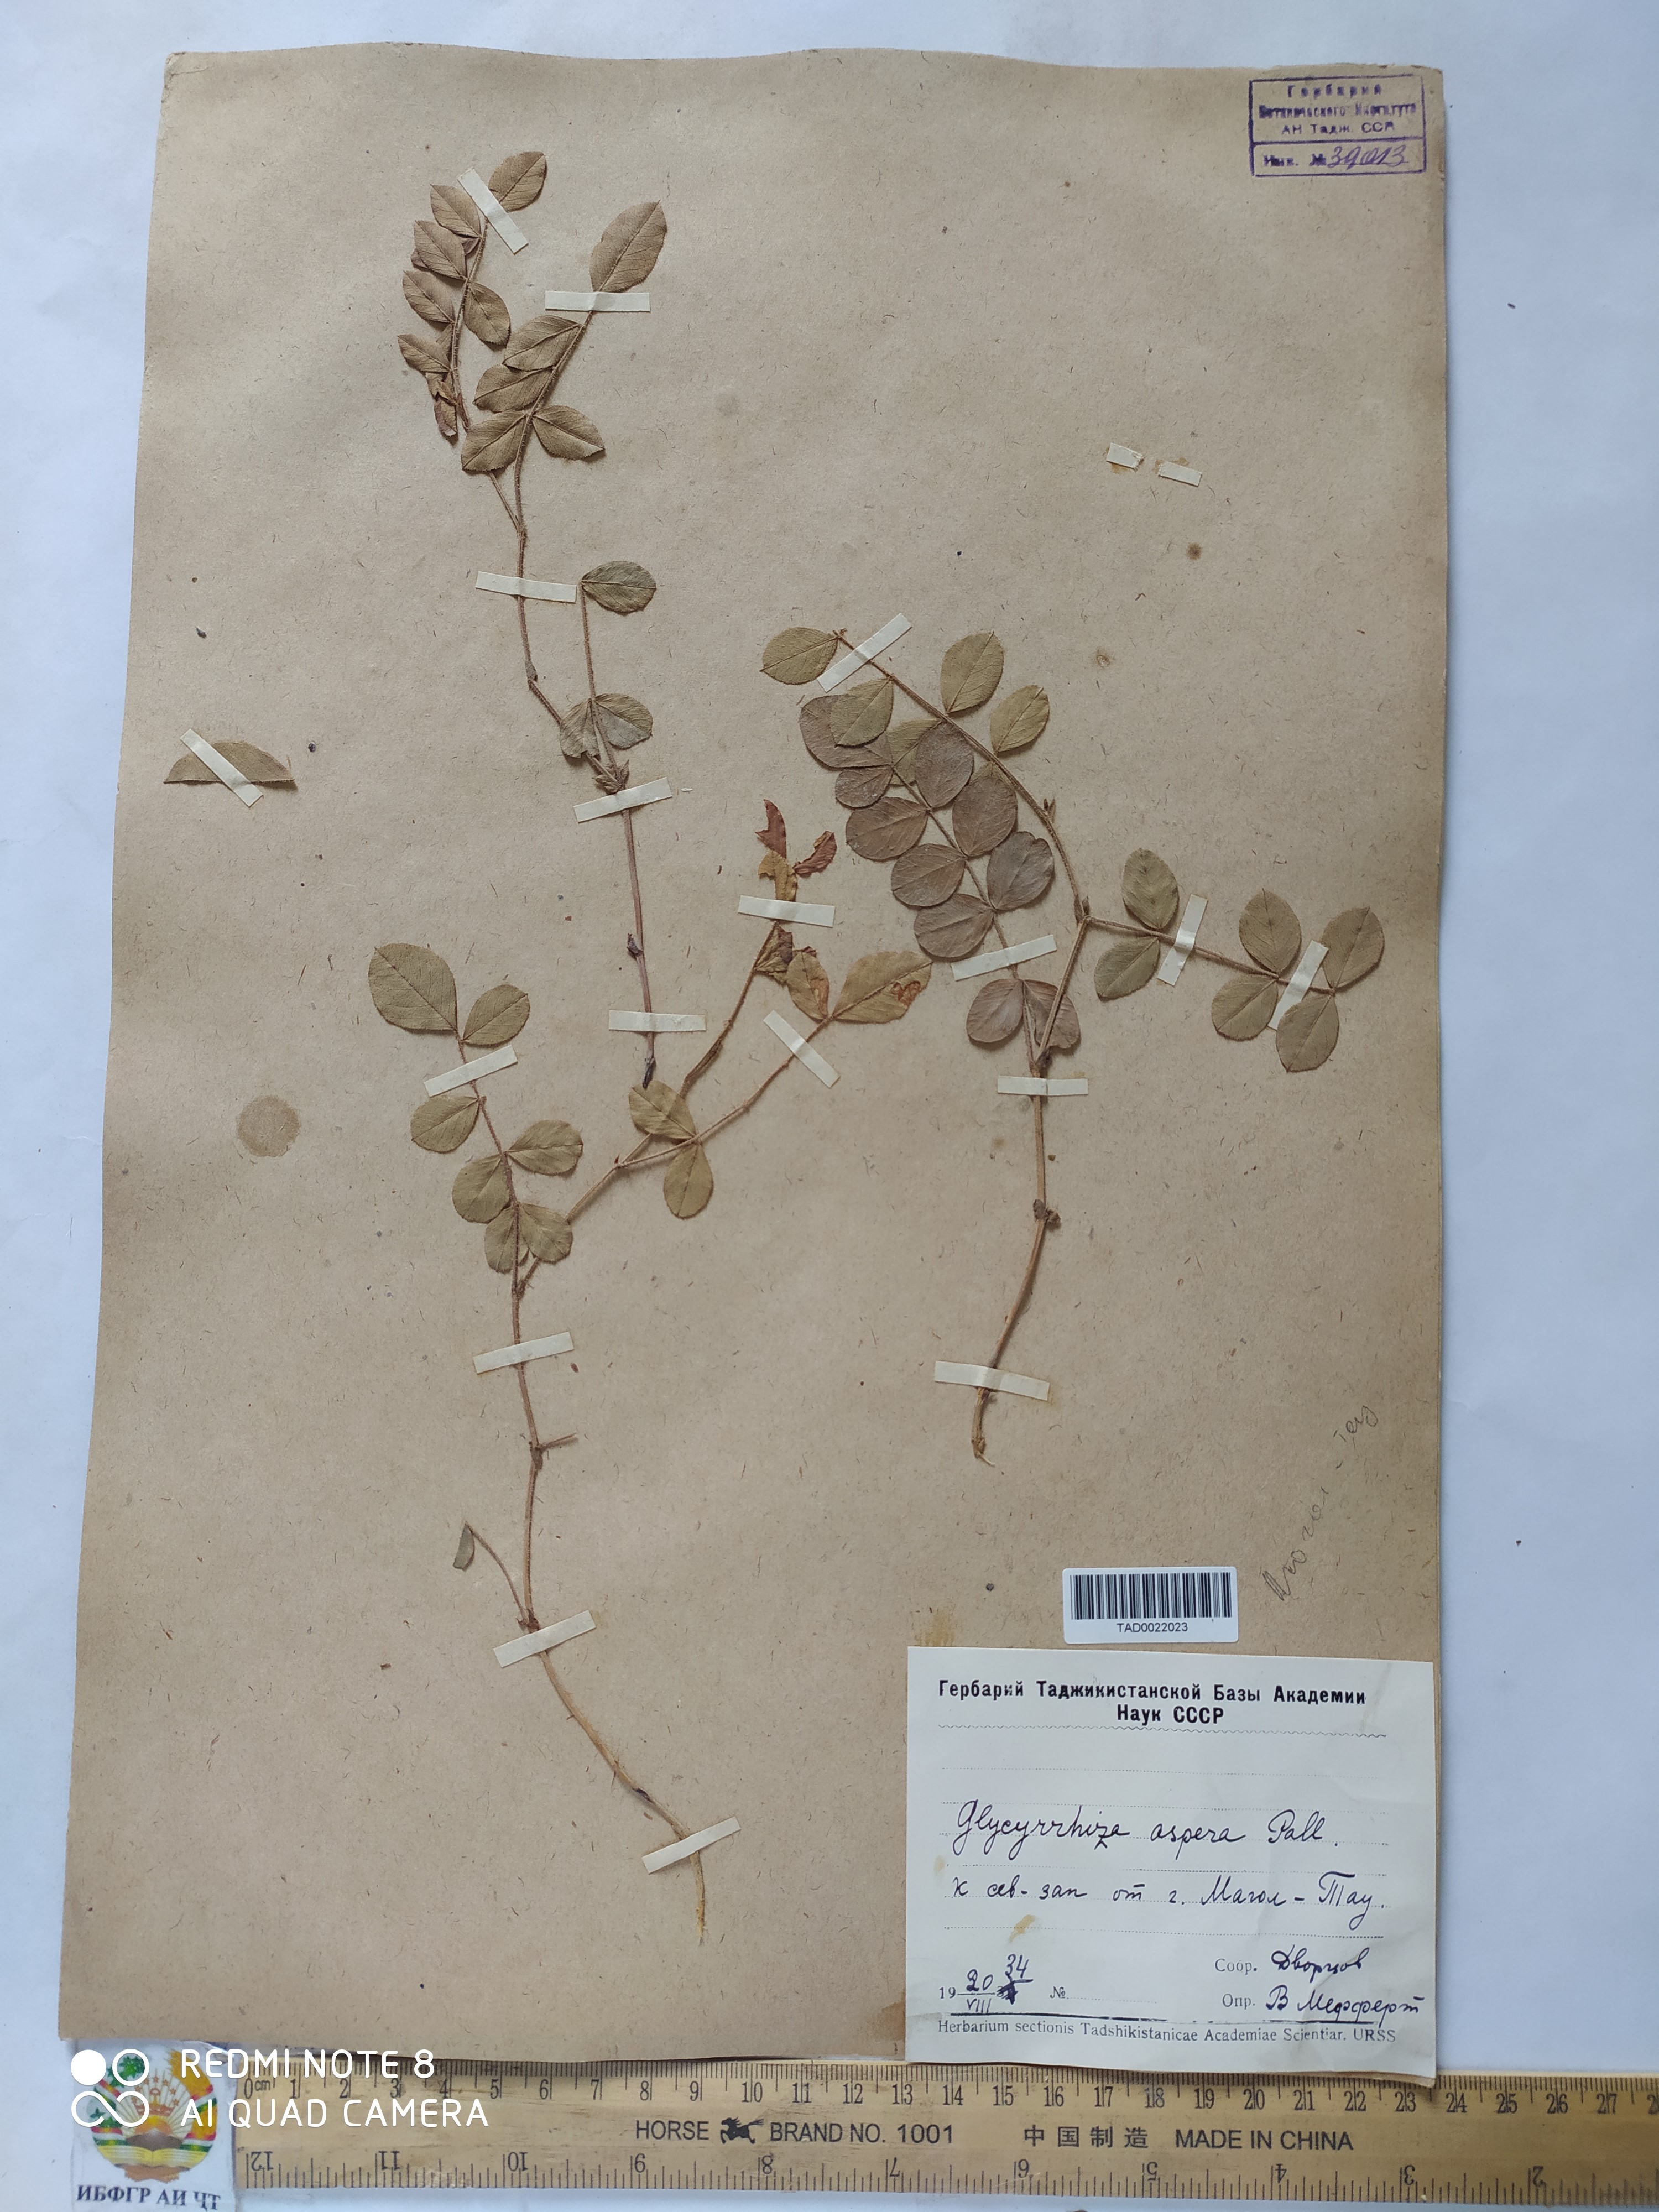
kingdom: Plantae
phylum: Tracheophyta
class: Magnoliopsida
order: Fabales
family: Fabaceae
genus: Glycyrrhiza
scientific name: Glycyrrhiza glabra
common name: Liquorice
